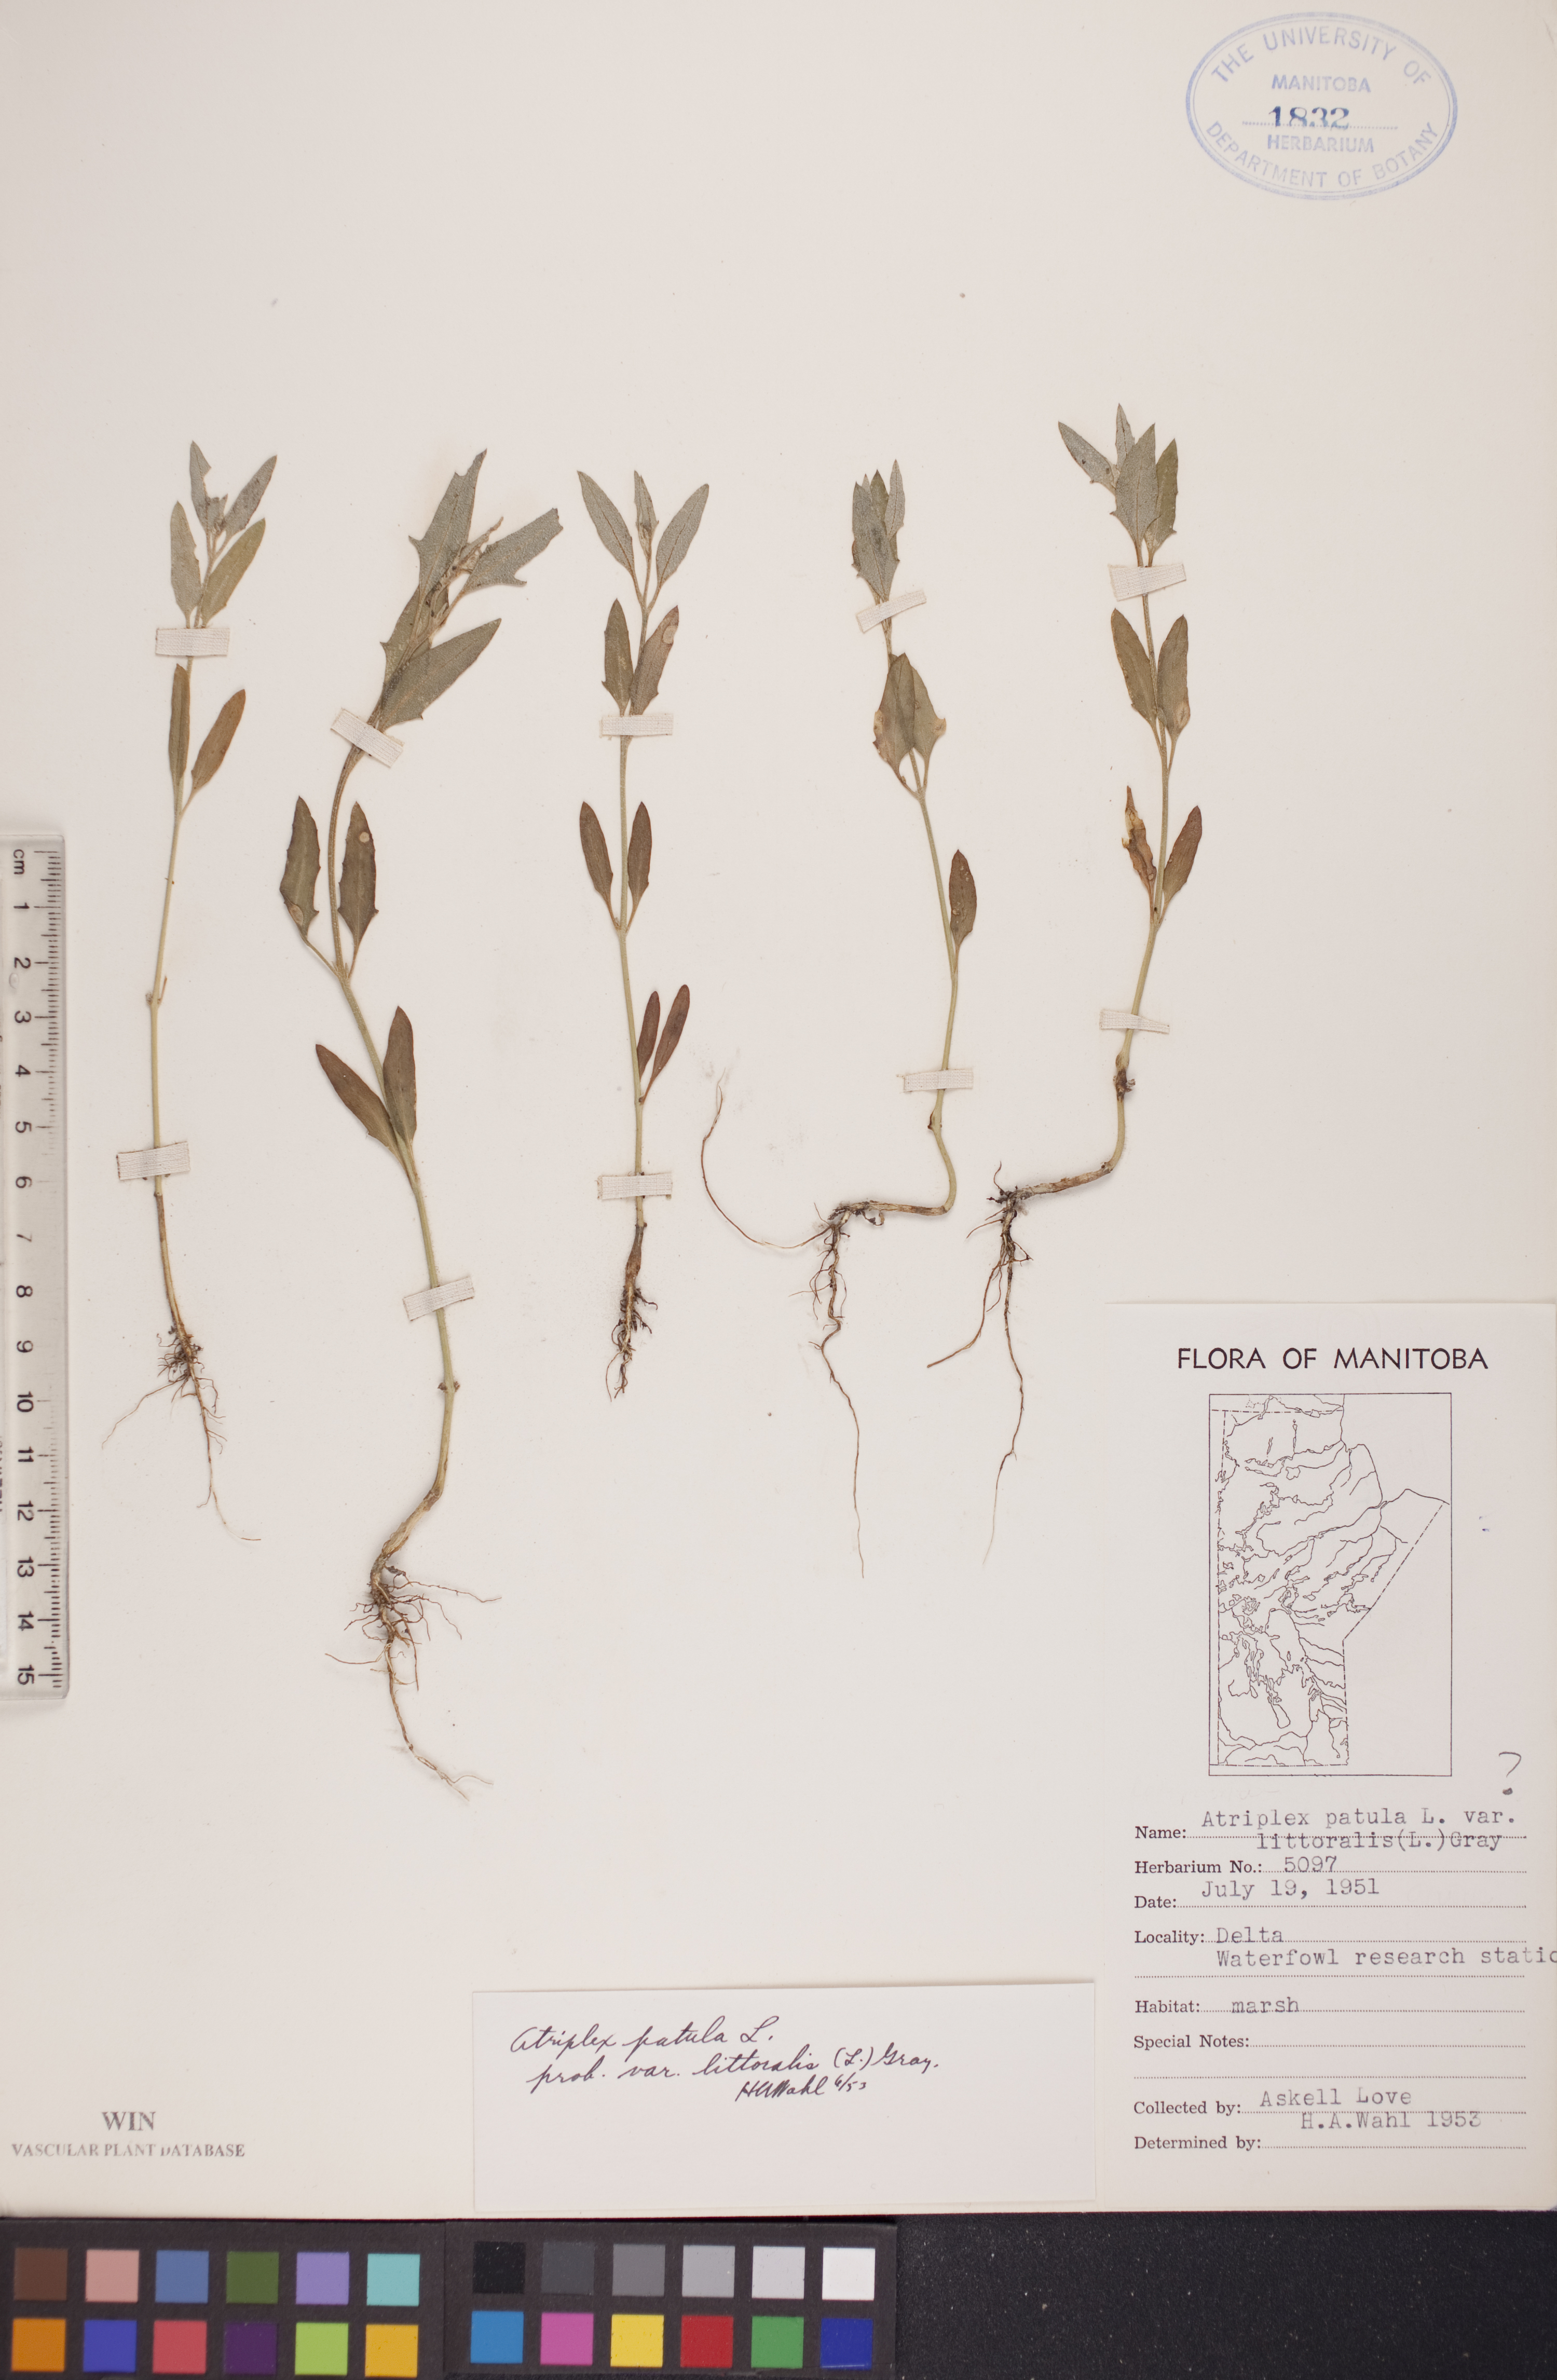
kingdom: Plantae
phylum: Tracheophyta
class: Magnoliopsida
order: Caryophyllales
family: Amaranthaceae
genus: Atriplex
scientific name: Atriplex littoralis
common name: Grass-leaved orache
